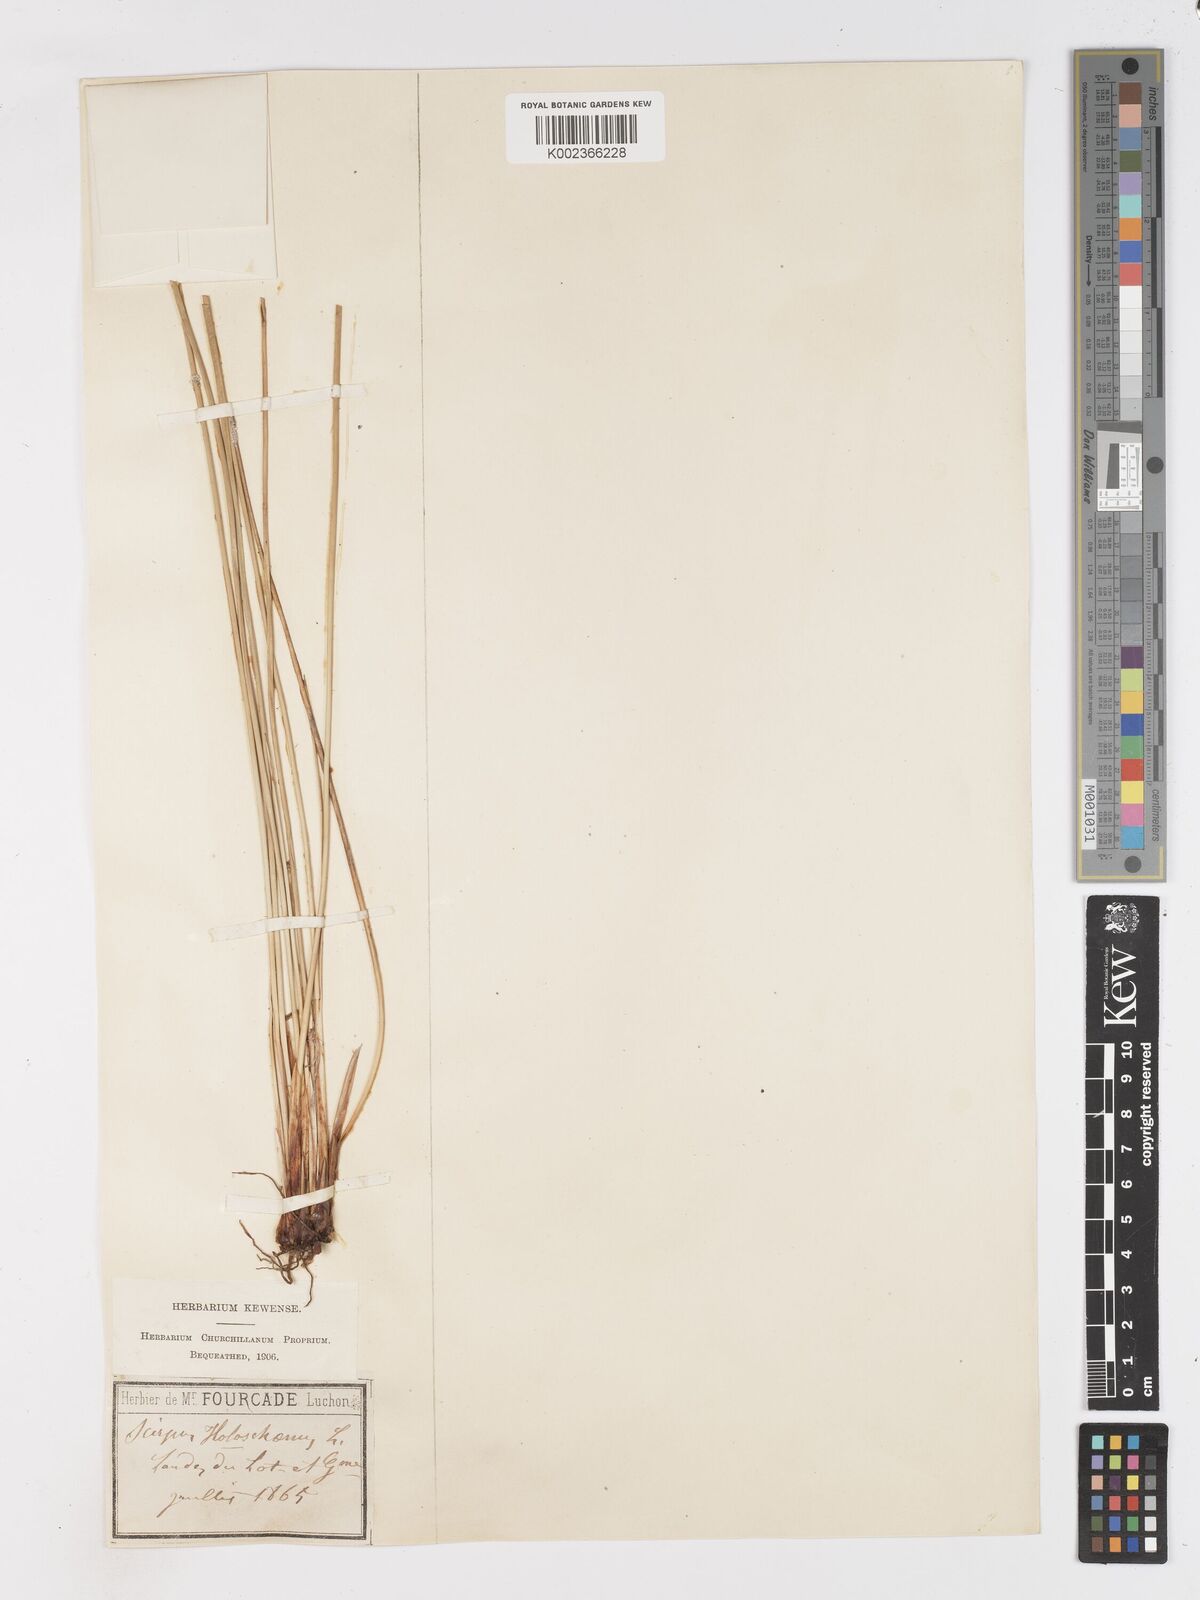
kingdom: Plantae
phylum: Tracheophyta
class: Liliopsida
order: Poales
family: Cyperaceae
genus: Scirpoides
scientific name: Scirpoides holoschoenus
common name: Round-headed club-rush
